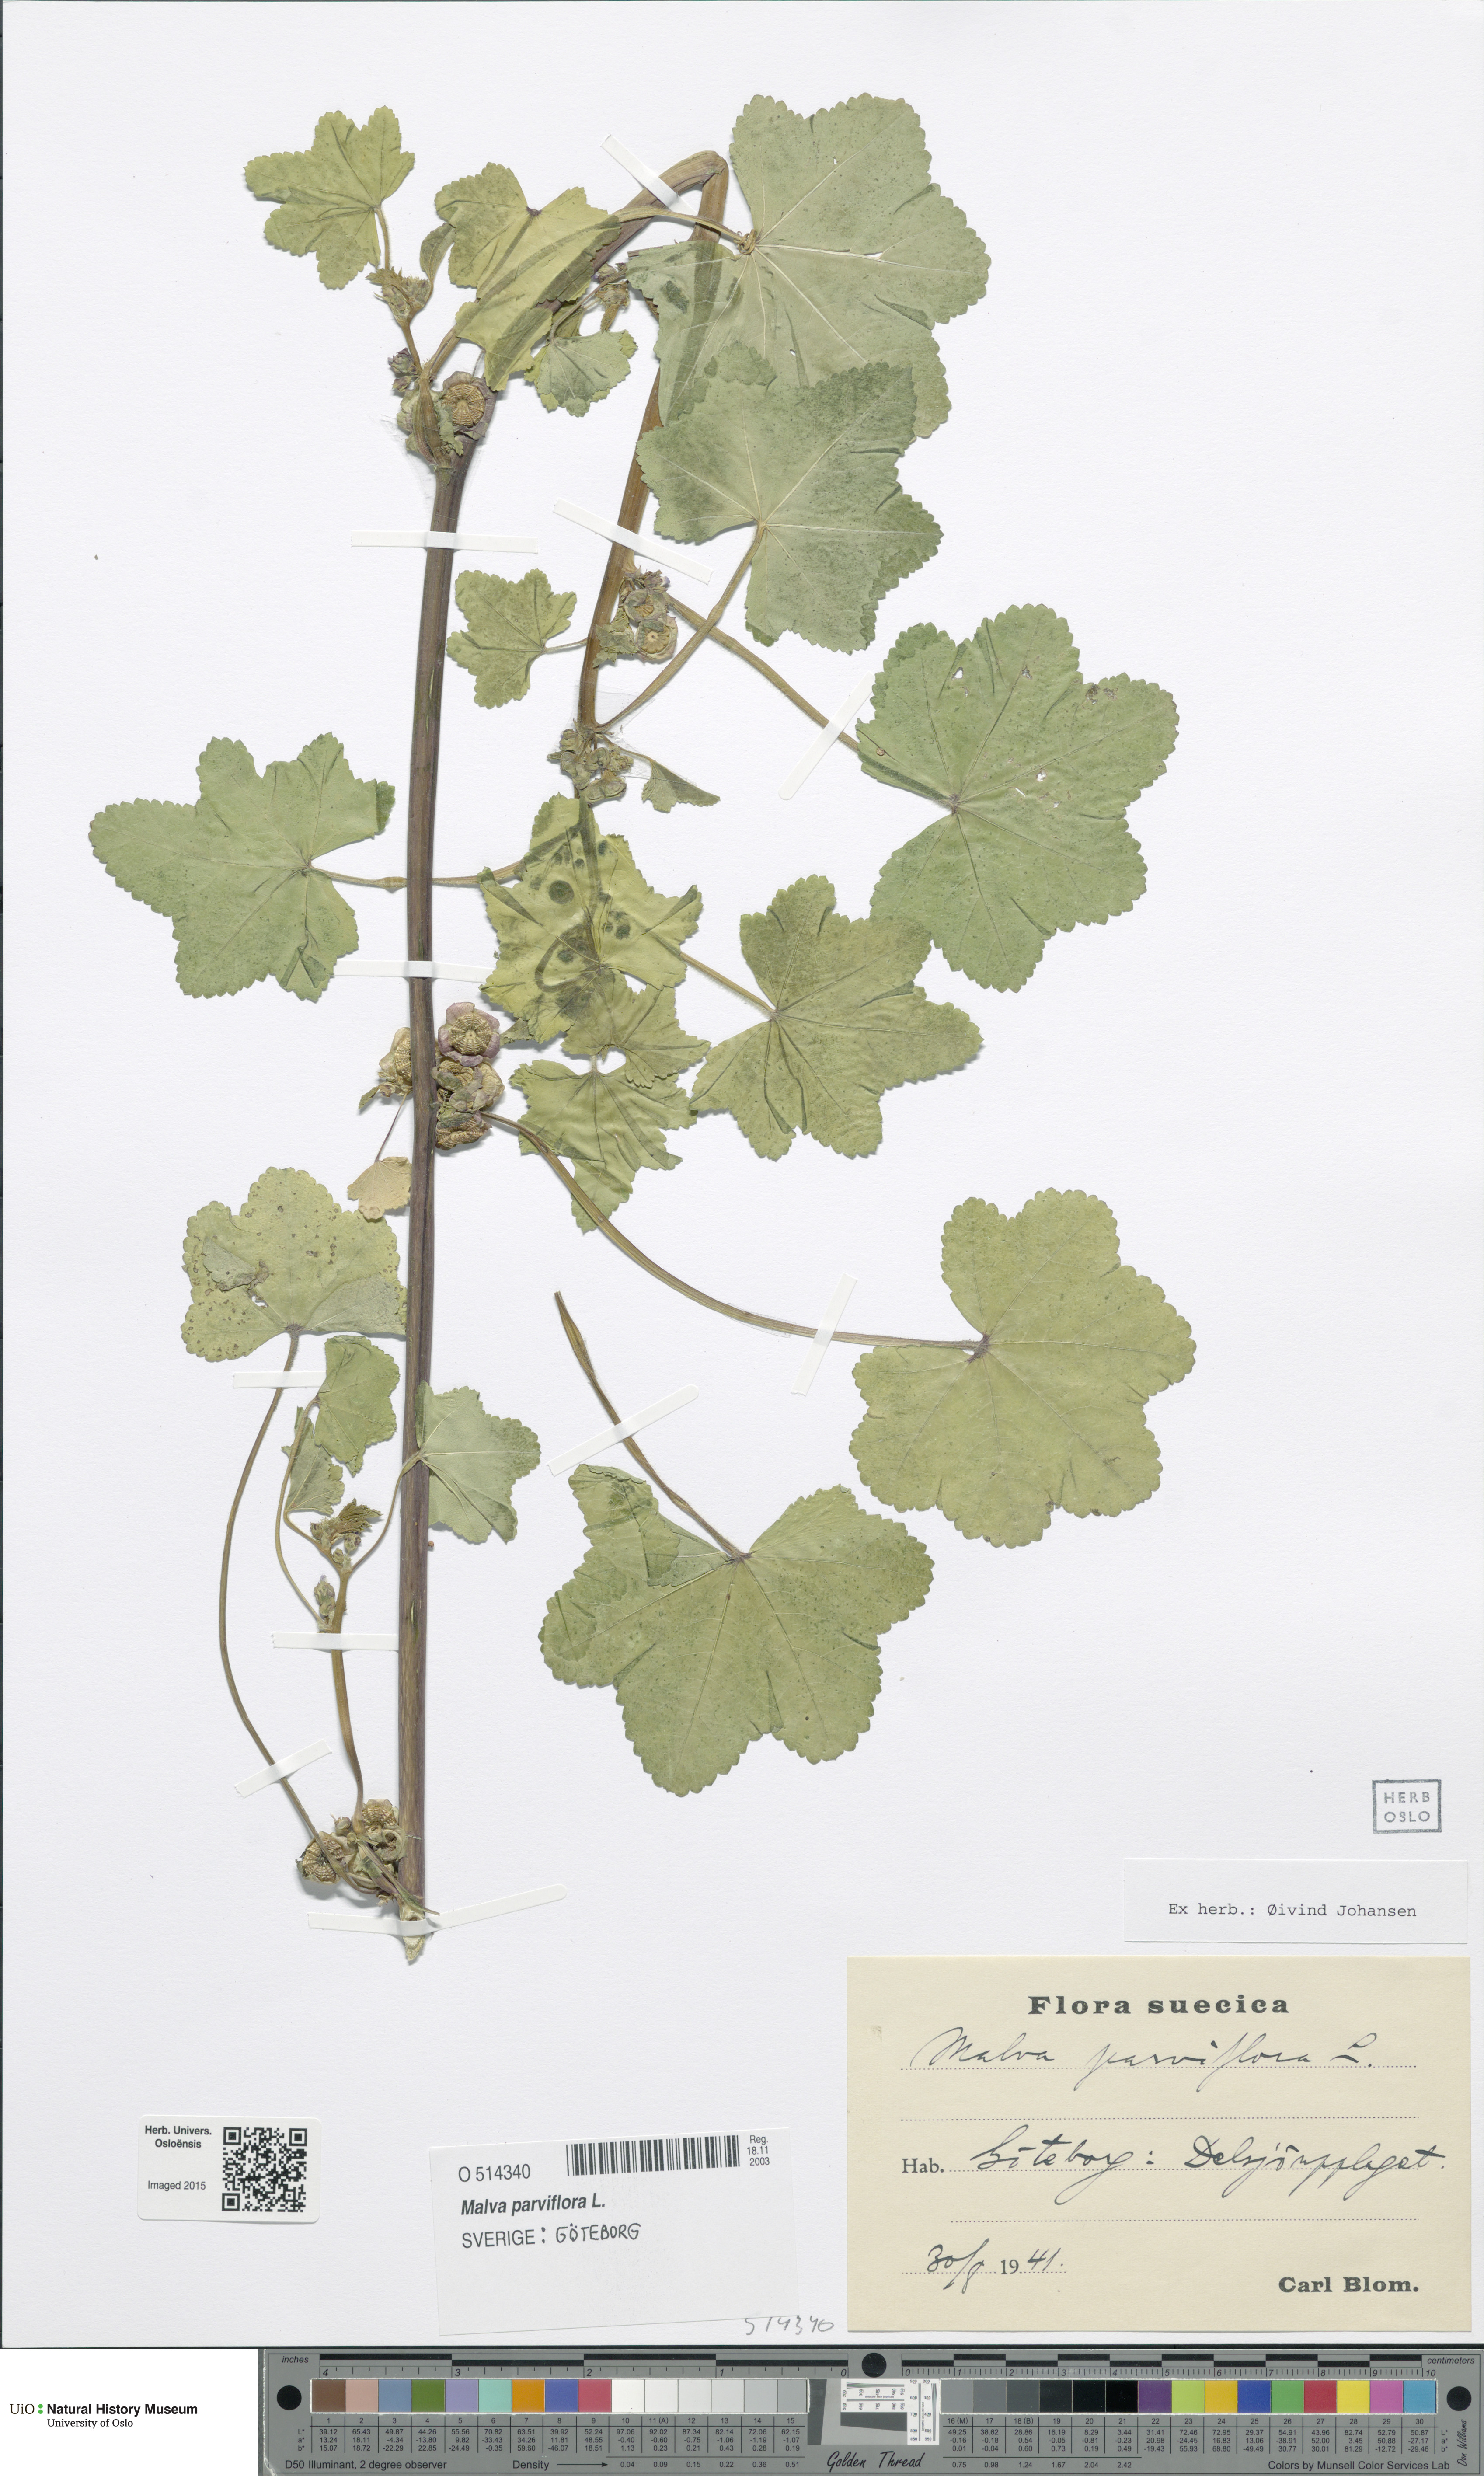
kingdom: Plantae
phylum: Tracheophyta
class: Magnoliopsida
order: Malvales
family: Malvaceae
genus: Malva
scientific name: Malva parviflora
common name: Least mallow
